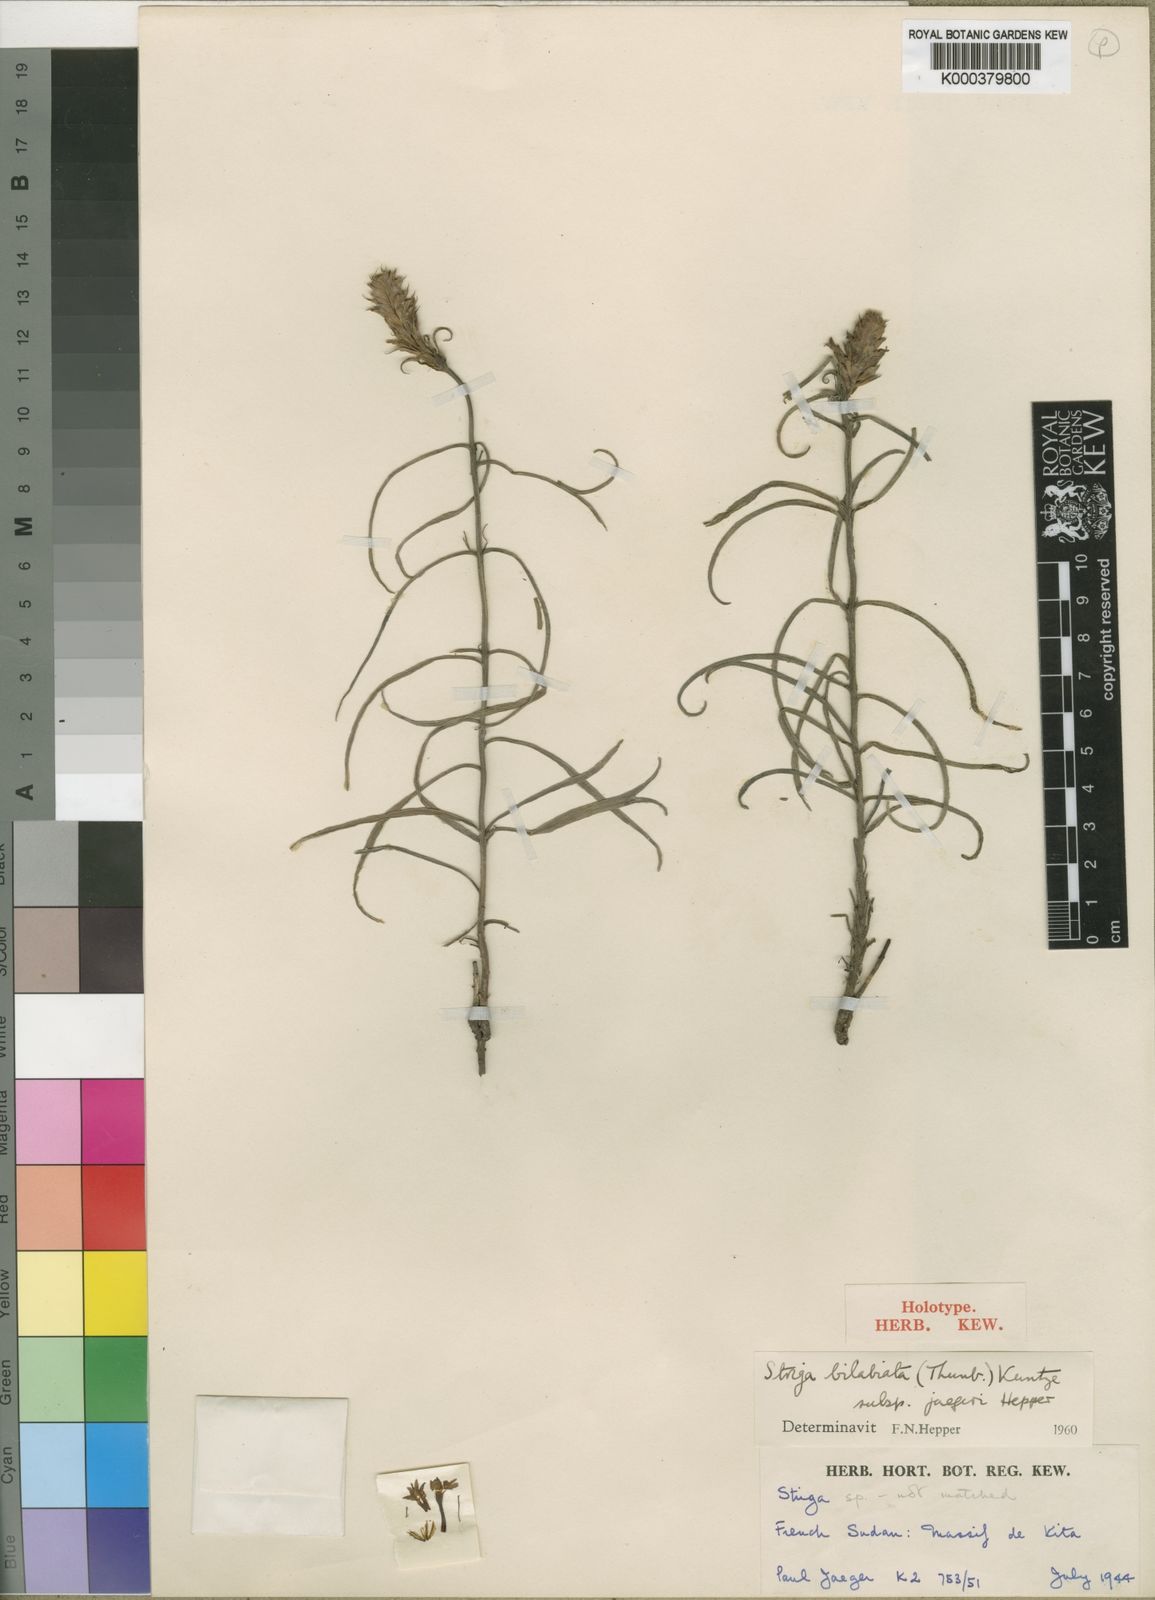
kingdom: Plantae
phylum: Tracheophyta
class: Magnoliopsida
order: Lamiales
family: Orobanchaceae
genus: Striga
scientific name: Striga bilabiata
